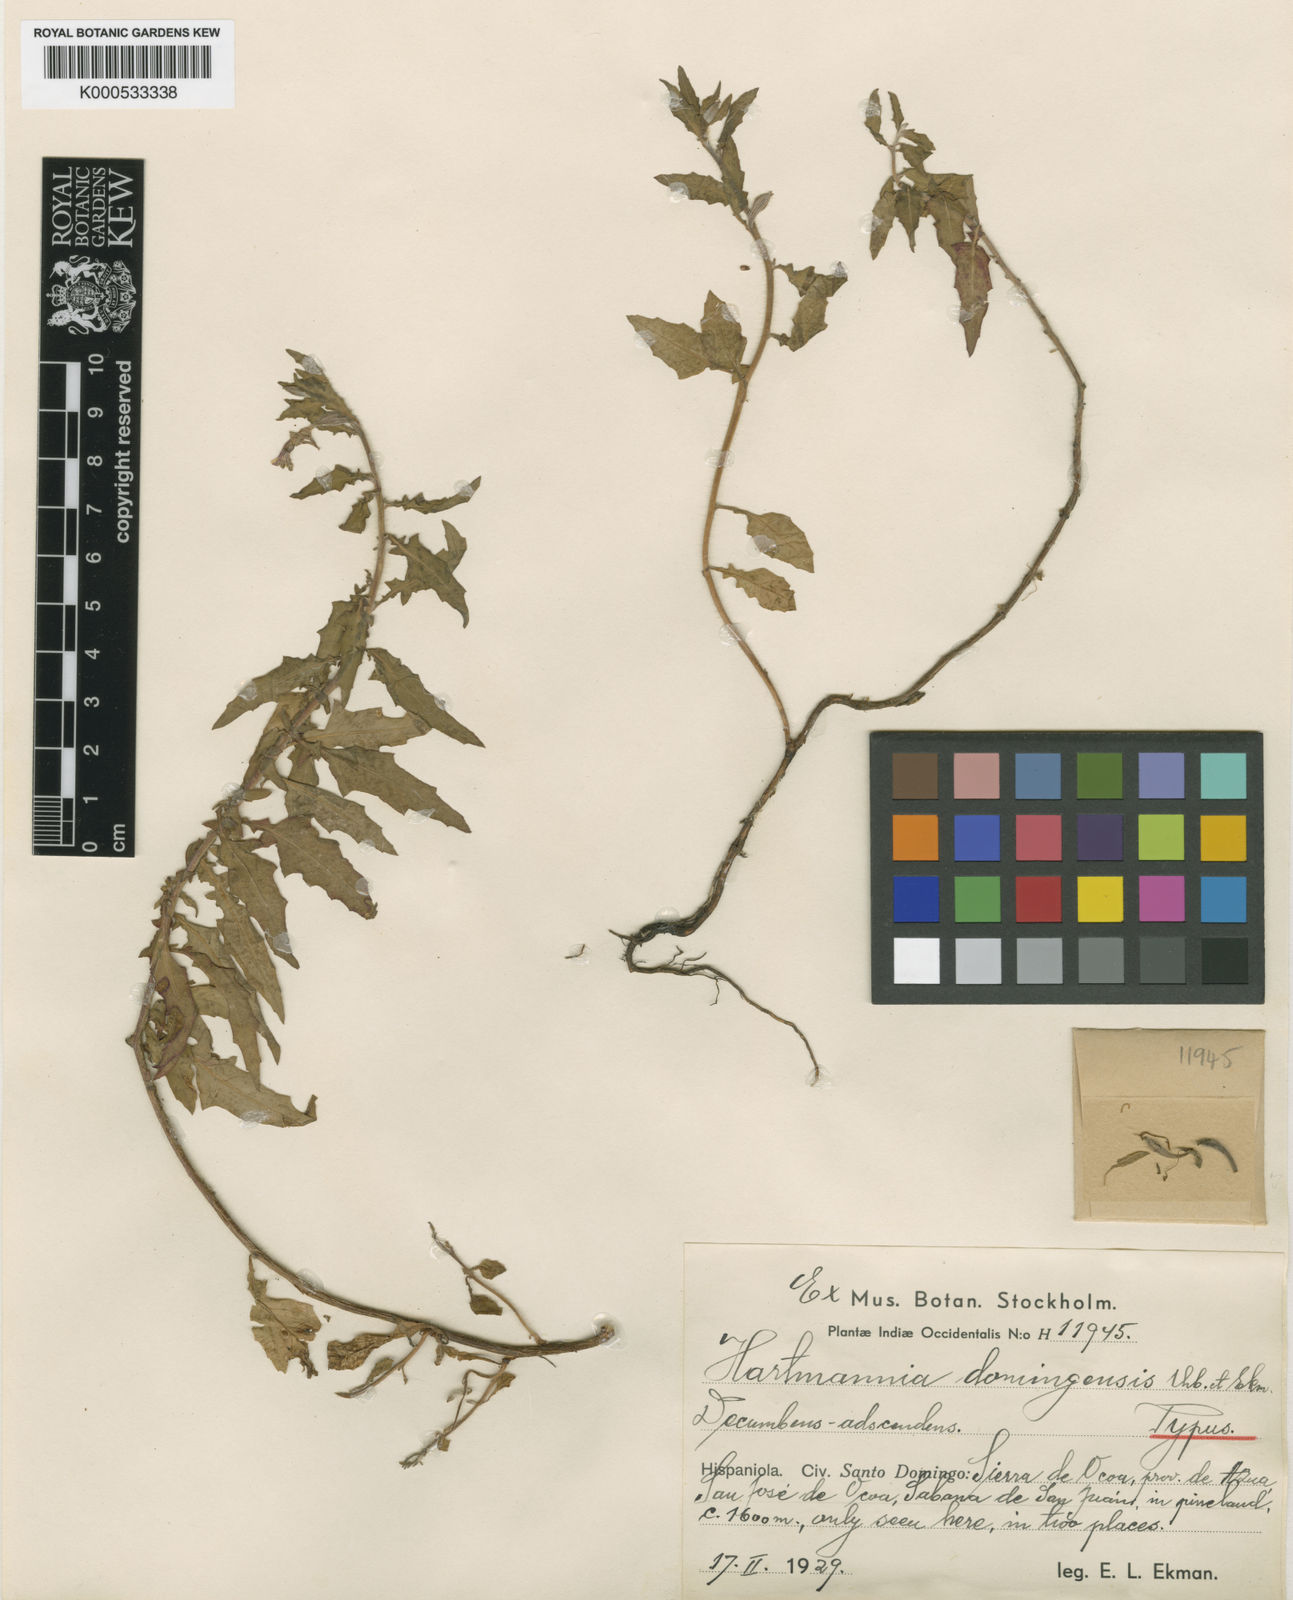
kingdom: Plantae
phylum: Tracheophyta
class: Magnoliopsida
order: Myrtales
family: Onagraceae
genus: Oenothera
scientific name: Oenothera kunthiana
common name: Kunth's evening-primrose
